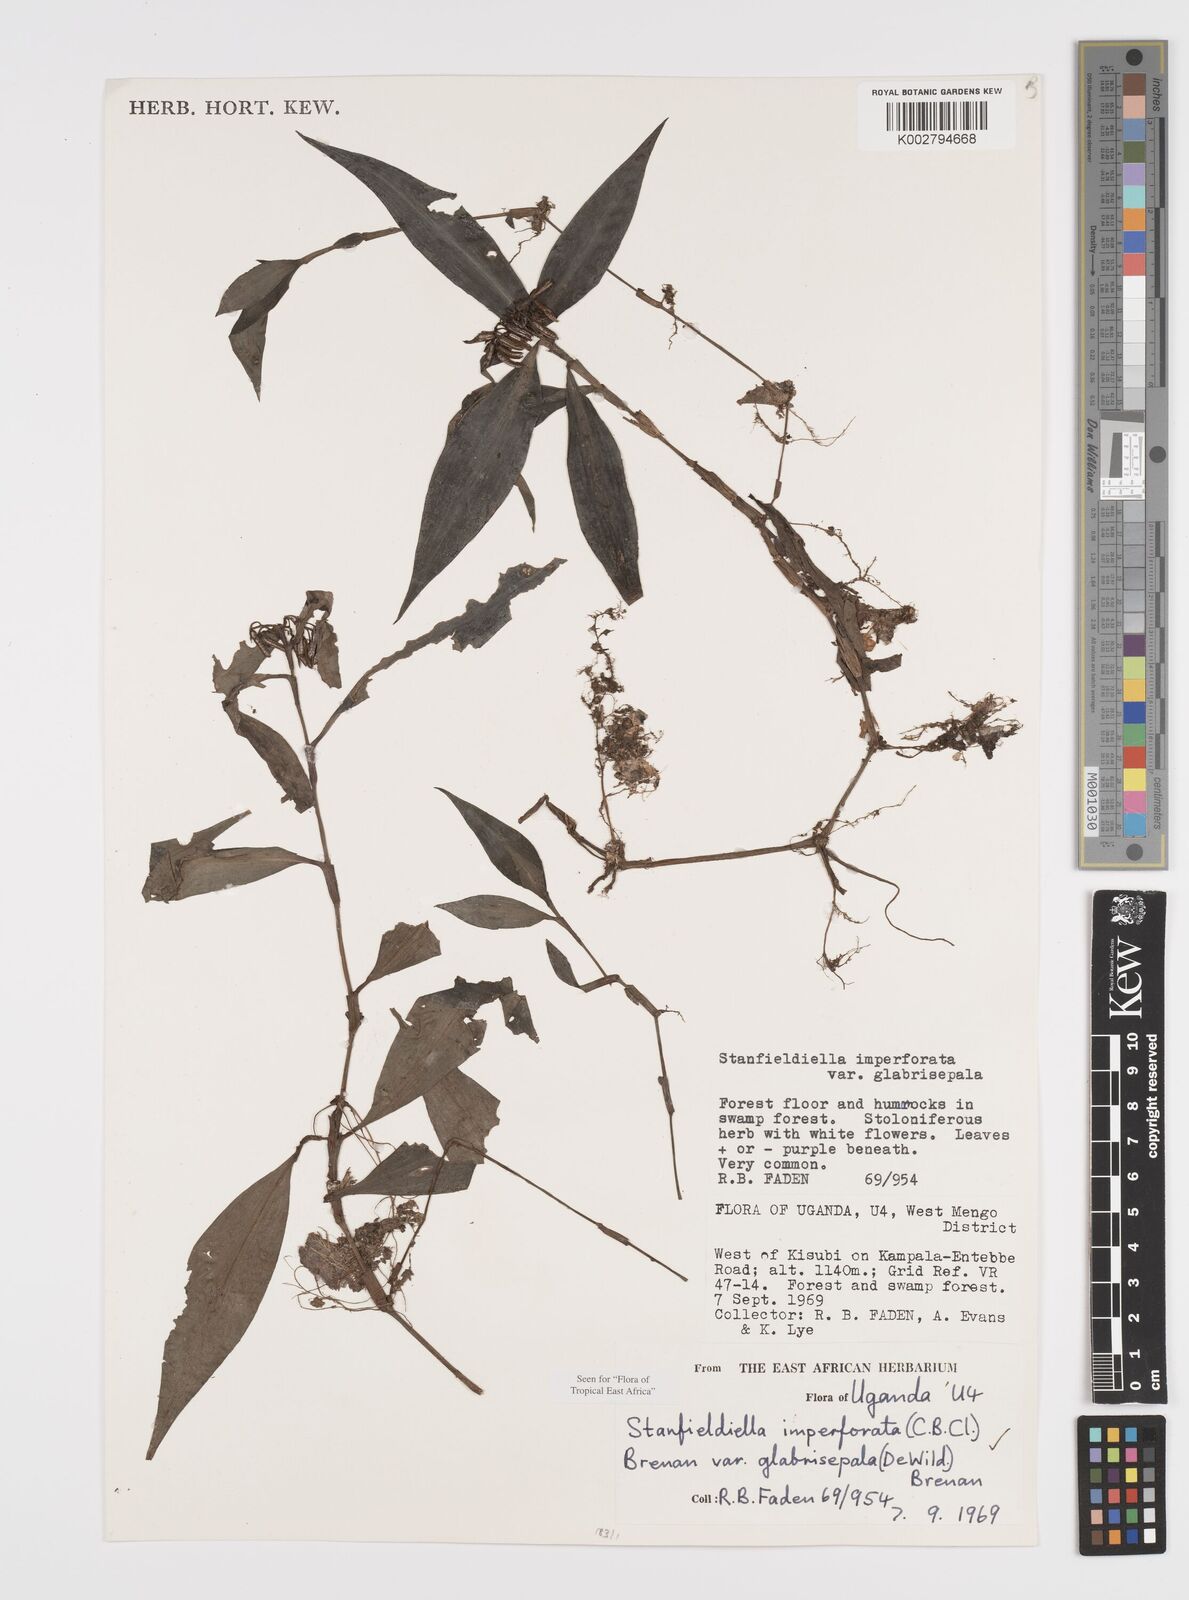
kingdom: Plantae
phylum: Tracheophyta
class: Liliopsida
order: Commelinales
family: Commelinaceae
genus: Stanfieldiella
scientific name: Stanfieldiella imperforata
